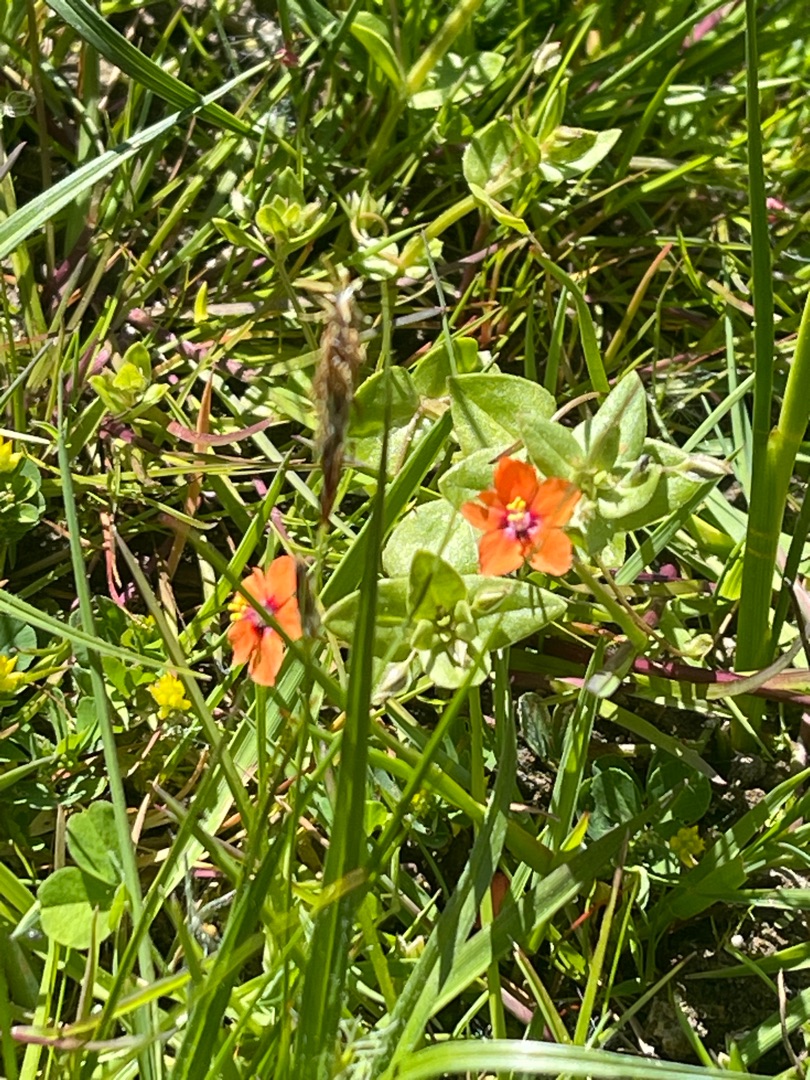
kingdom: Plantae
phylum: Tracheophyta
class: Magnoliopsida
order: Ericales
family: Primulaceae
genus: Lysimachia
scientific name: Lysimachia arvensis
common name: Rød arve
